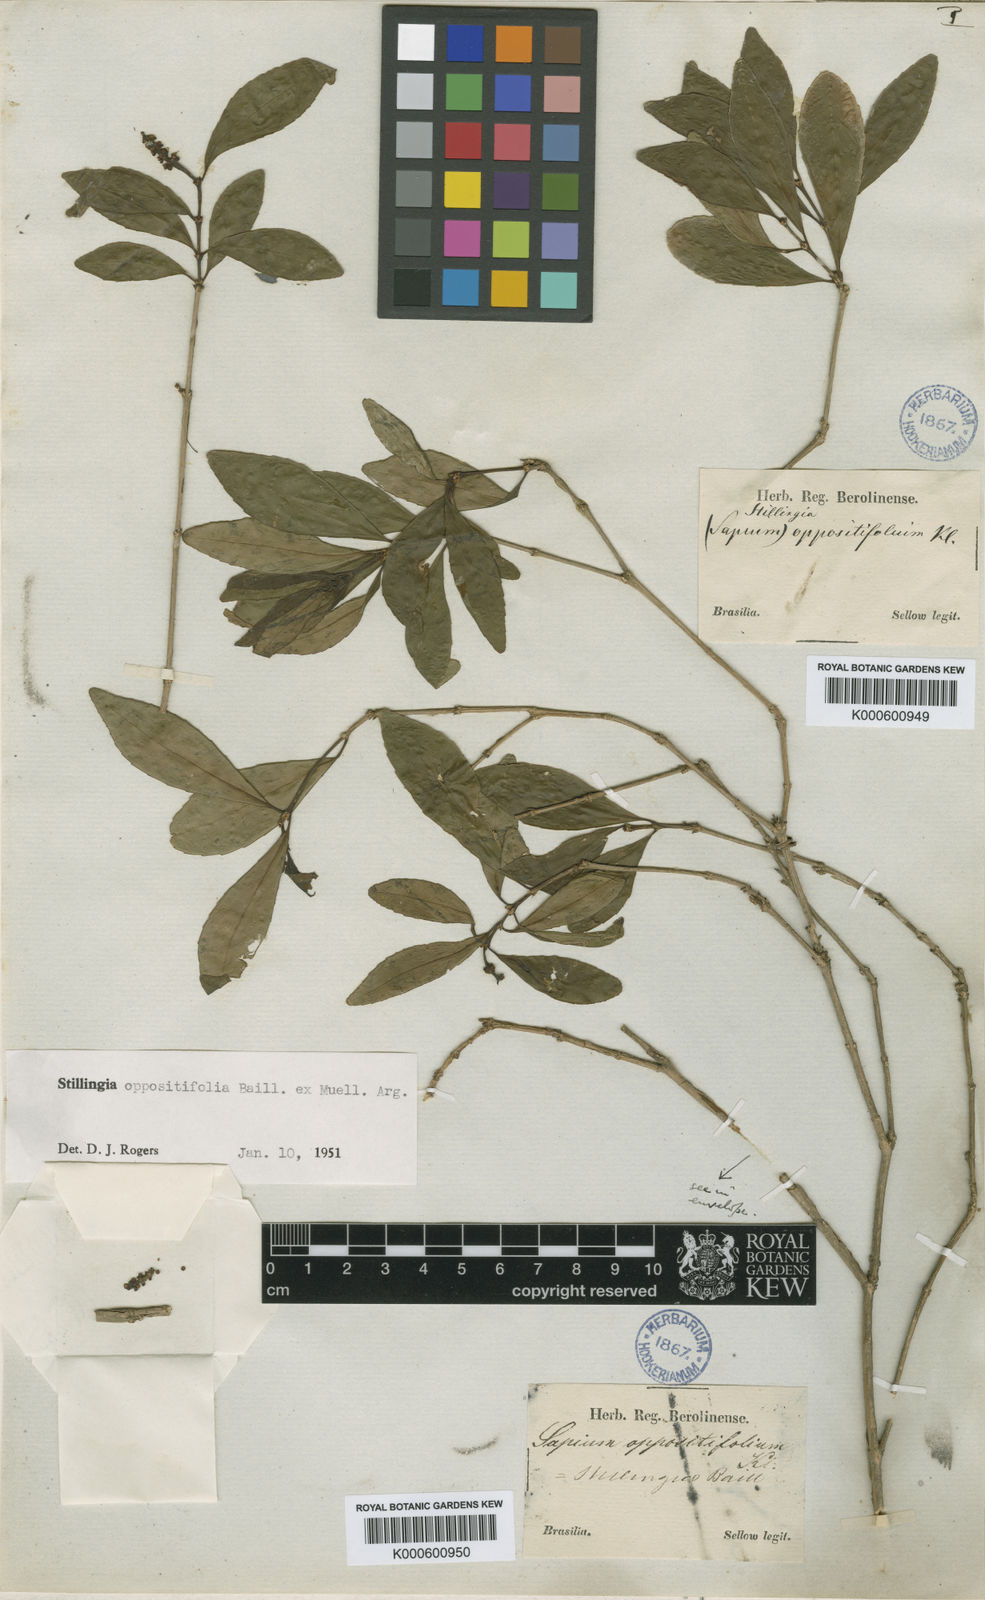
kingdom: Plantae
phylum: Tracheophyta
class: Magnoliopsida
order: Malpighiales
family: Euphorbiaceae
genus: Stillingia
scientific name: Stillingia
